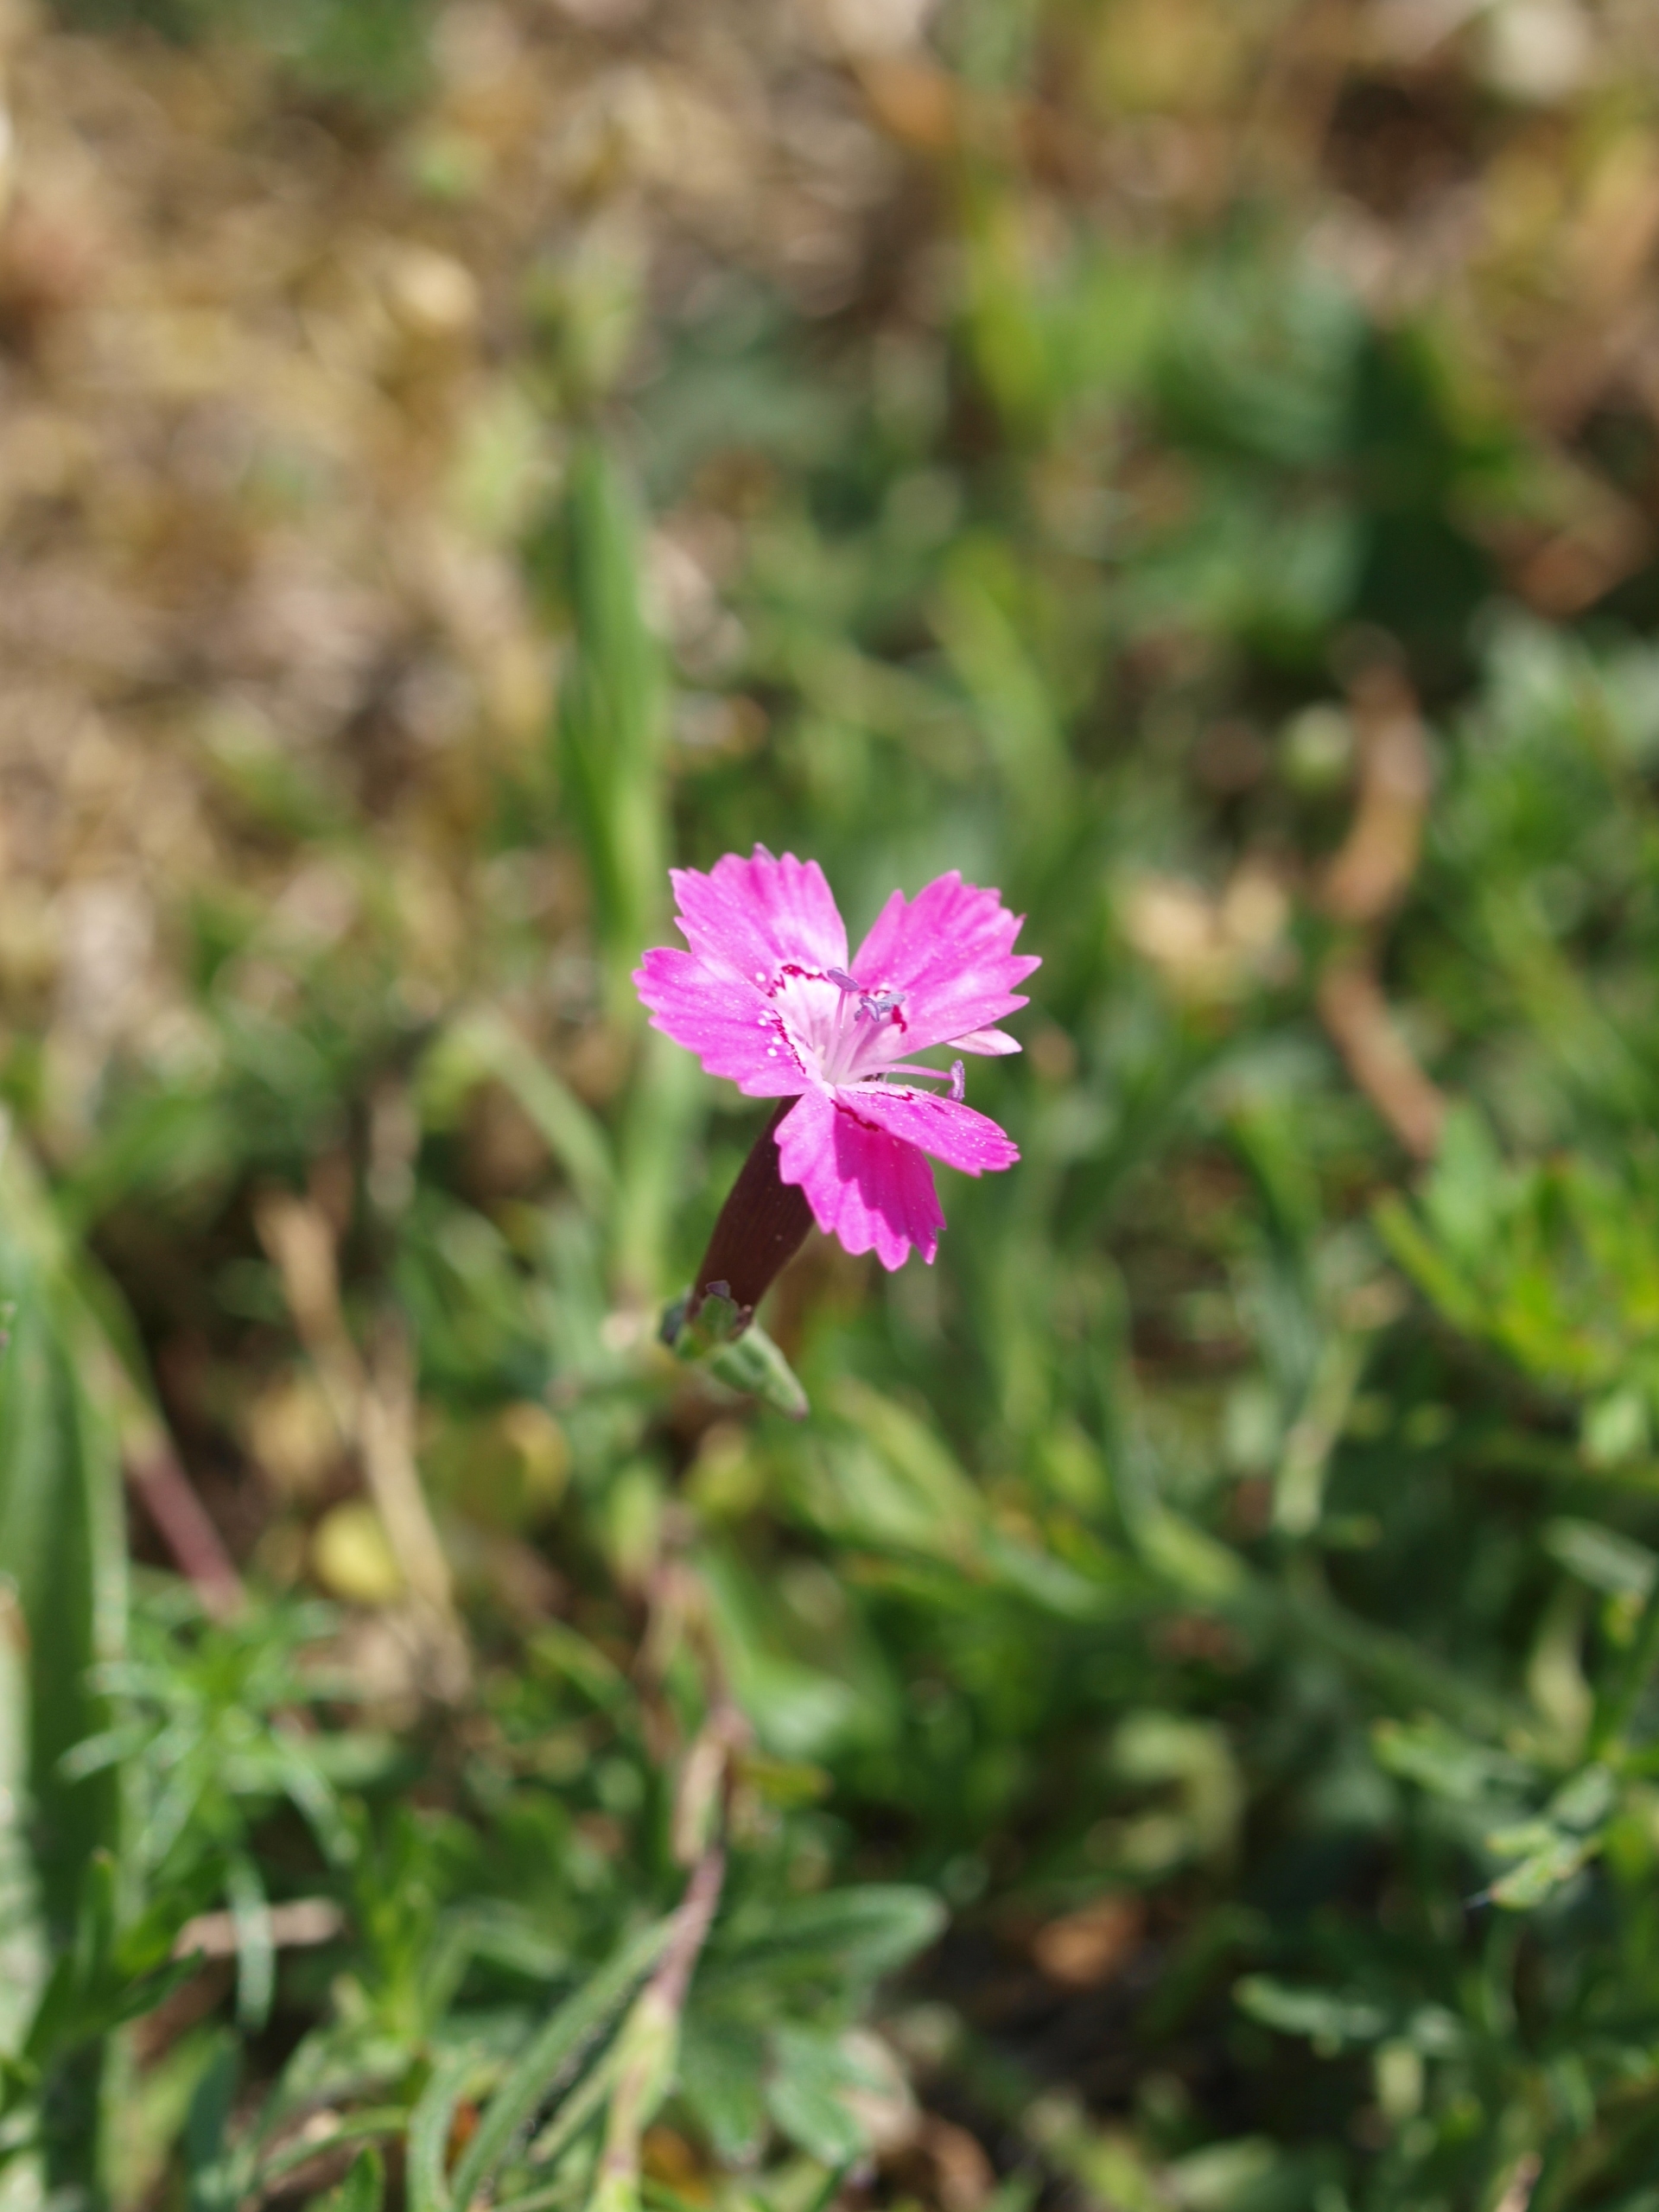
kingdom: Plantae
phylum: Tracheophyta
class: Magnoliopsida
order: Caryophyllales
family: Caryophyllaceae
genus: Dianthus
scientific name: Dianthus deltoides
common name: Bakke-nellike
